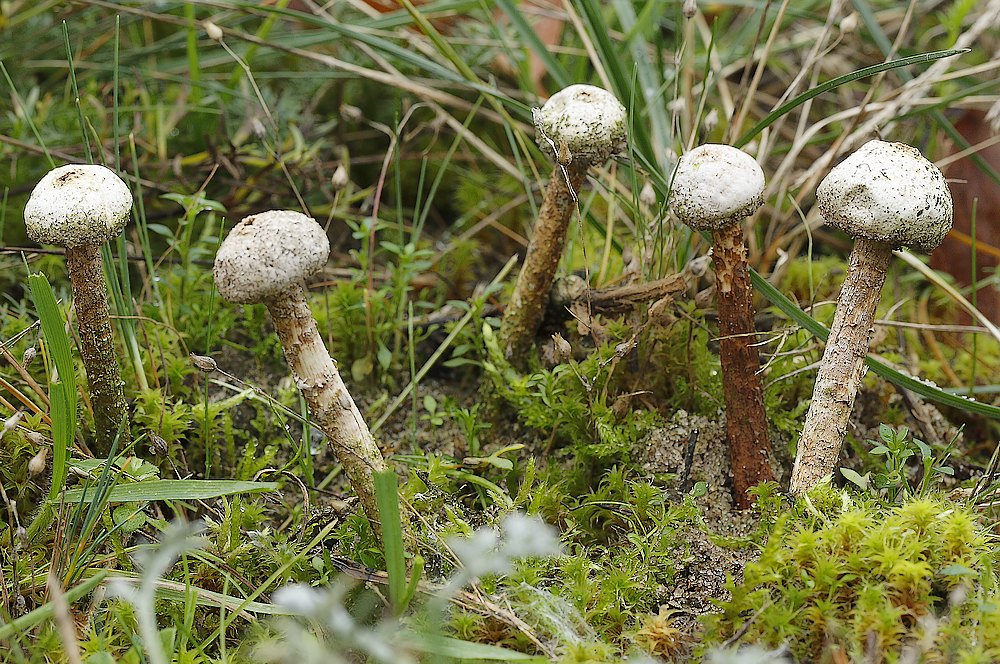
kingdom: Fungi
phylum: Basidiomycota
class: Agaricomycetes
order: Agaricales
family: Agaricaceae
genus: Tulostoma
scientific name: Tulostoma fimbriatum
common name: frynset stilkbovist
